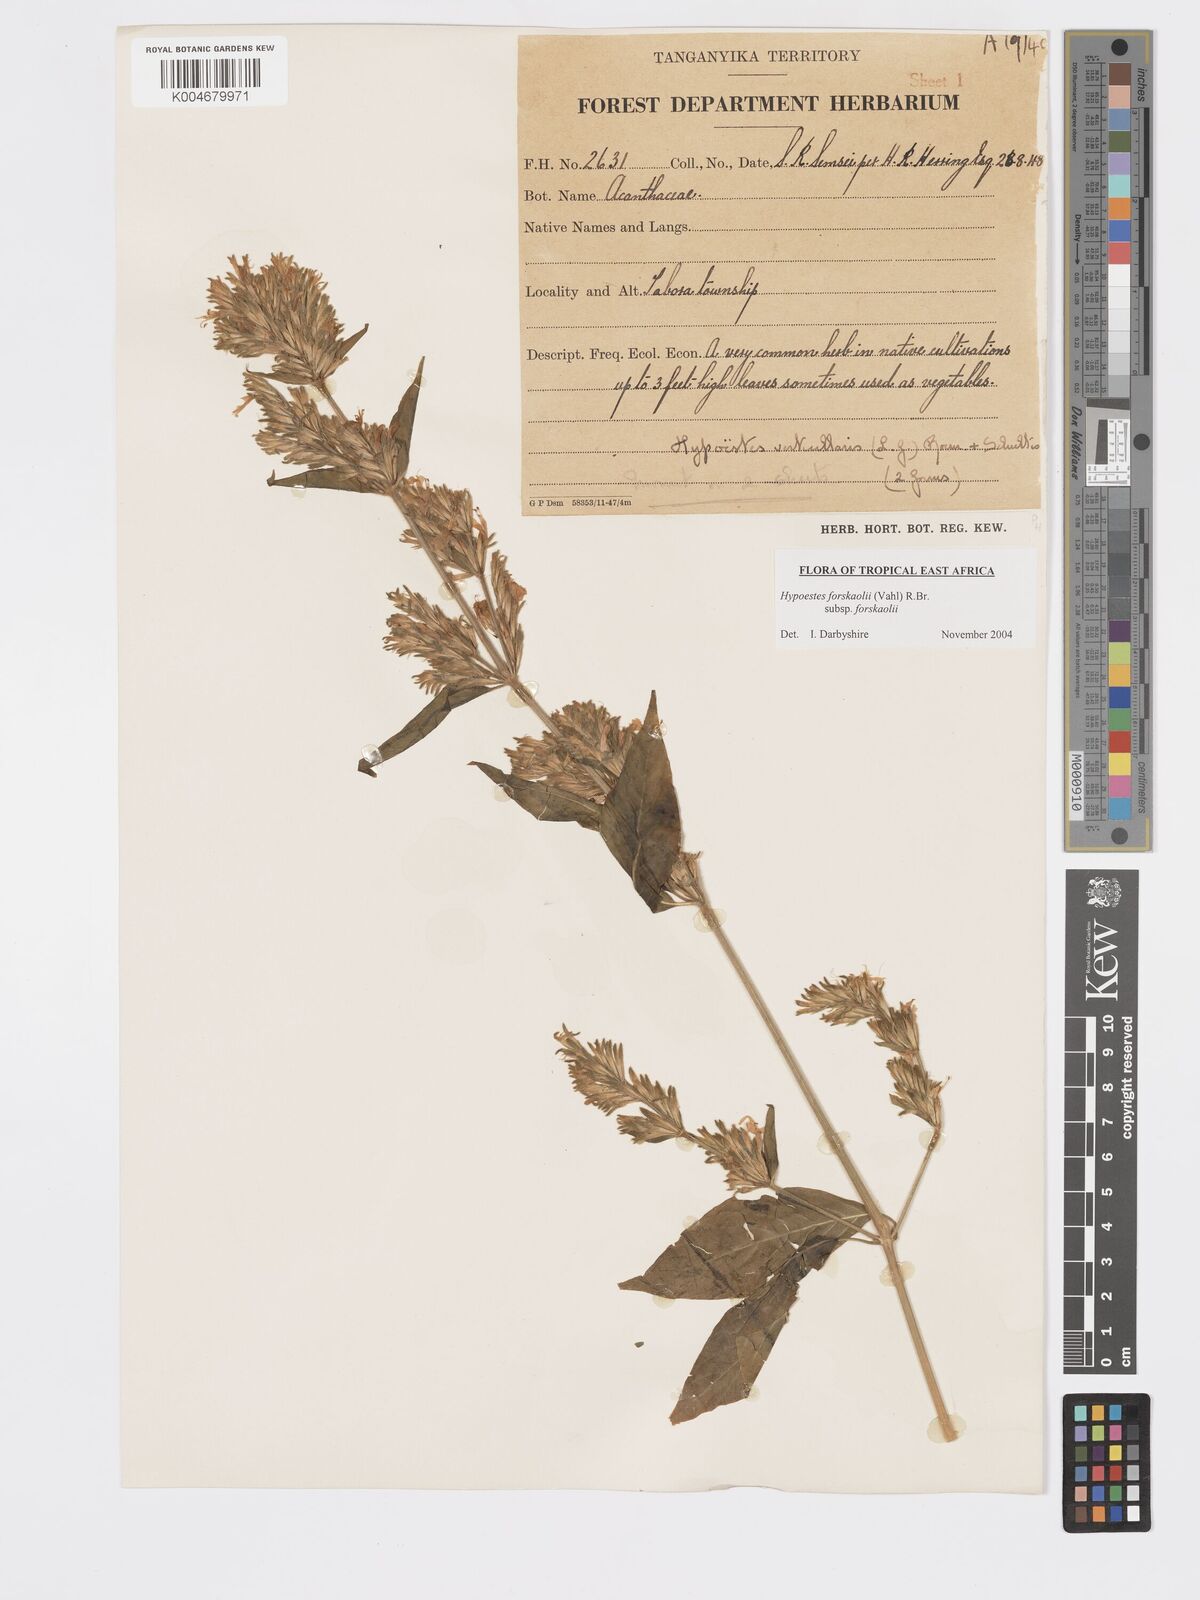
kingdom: Plantae
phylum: Tracheophyta
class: Magnoliopsida
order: Lamiales
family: Acanthaceae
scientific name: Acanthaceae
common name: Acanthaceae
